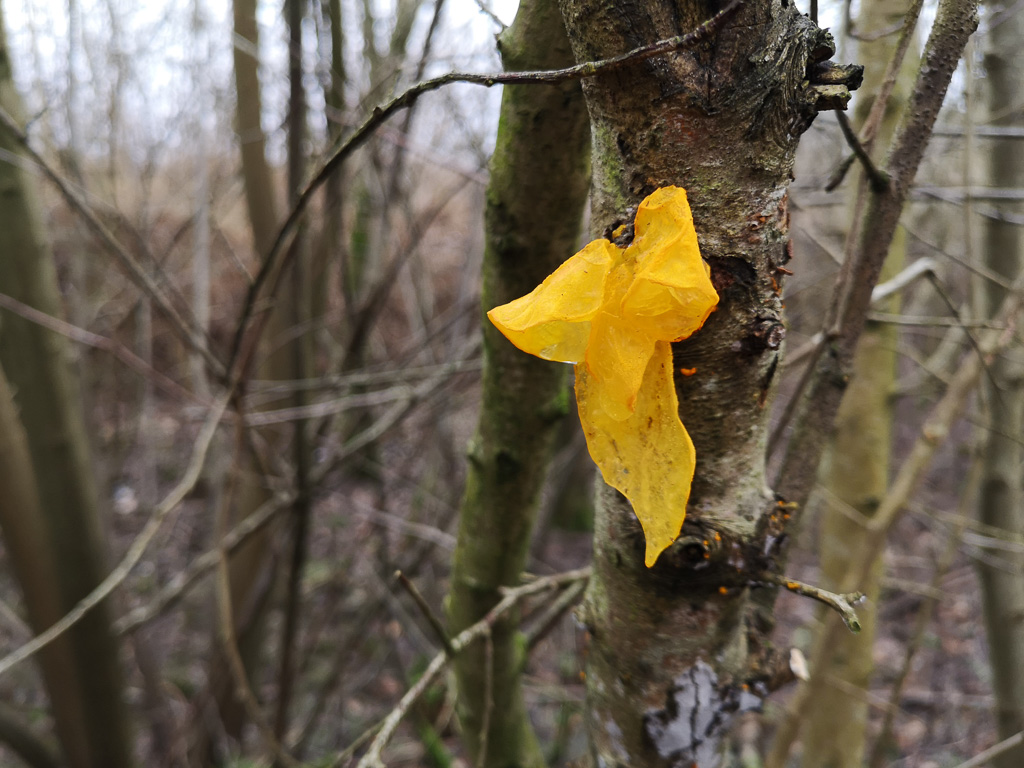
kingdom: Fungi
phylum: Basidiomycota
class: Tremellomycetes
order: Tremellales
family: Tremellaceae
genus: Tremella
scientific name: Tremella mesenterica
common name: gul bævresvamp
